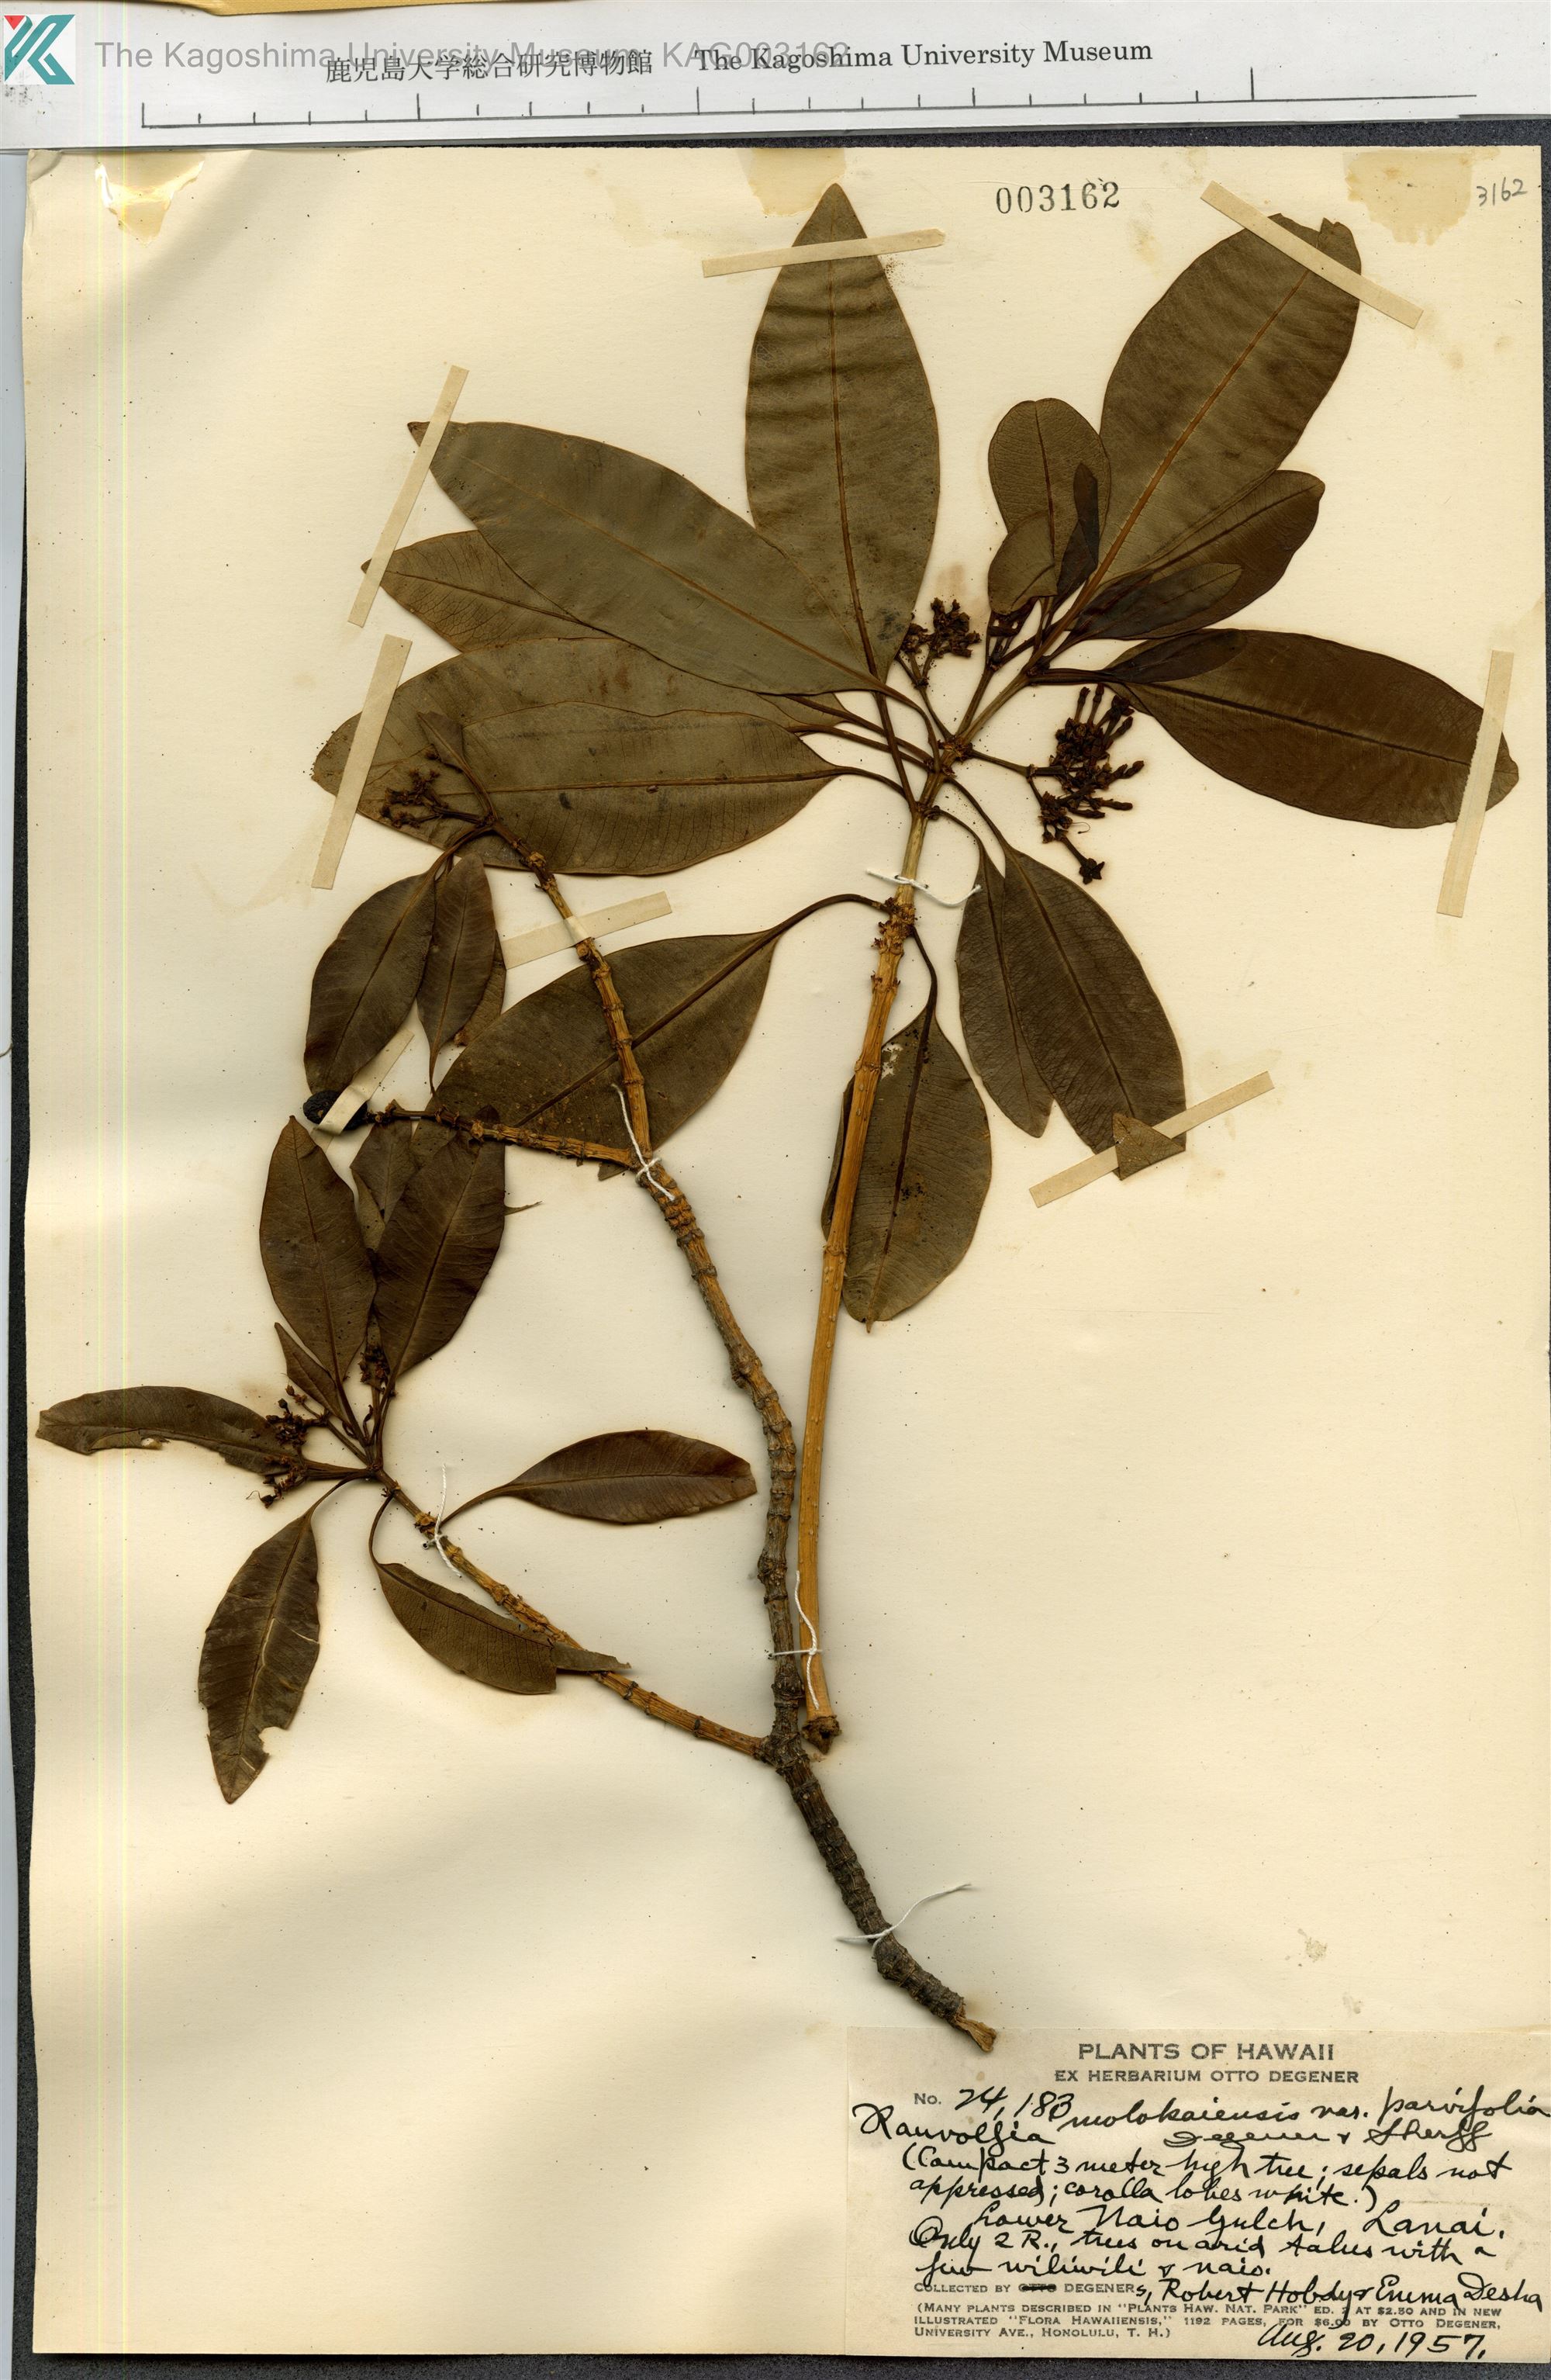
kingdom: Plantae
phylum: Tracheophyta
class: Magnoliopsida
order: Gentianales
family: Apocynaceae
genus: Rauvolfia
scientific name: Rauvolfia sandwicensis
